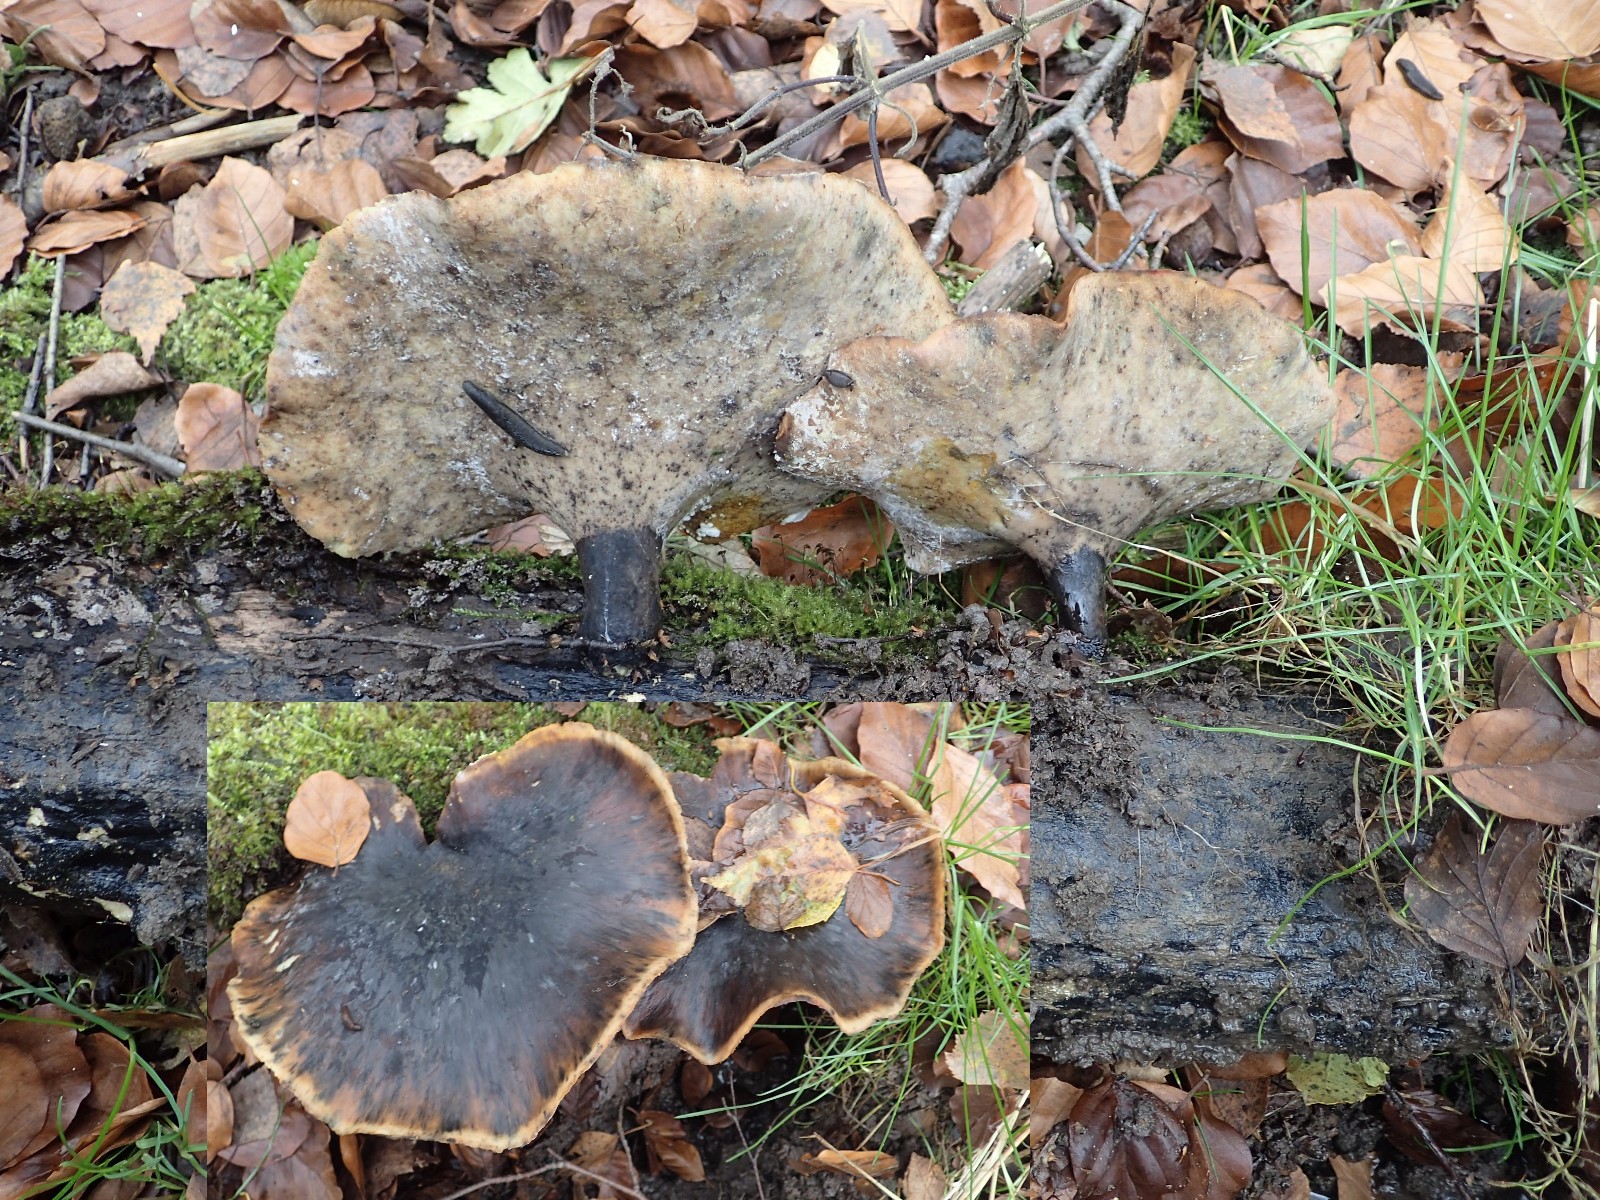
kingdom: Fungi
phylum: Basidiomycota
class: Agaricomycetes
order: Polyporales
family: Polyporaceae
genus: Picipes
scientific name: Picipes badius
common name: kastaniebrun stilkporesvamp
